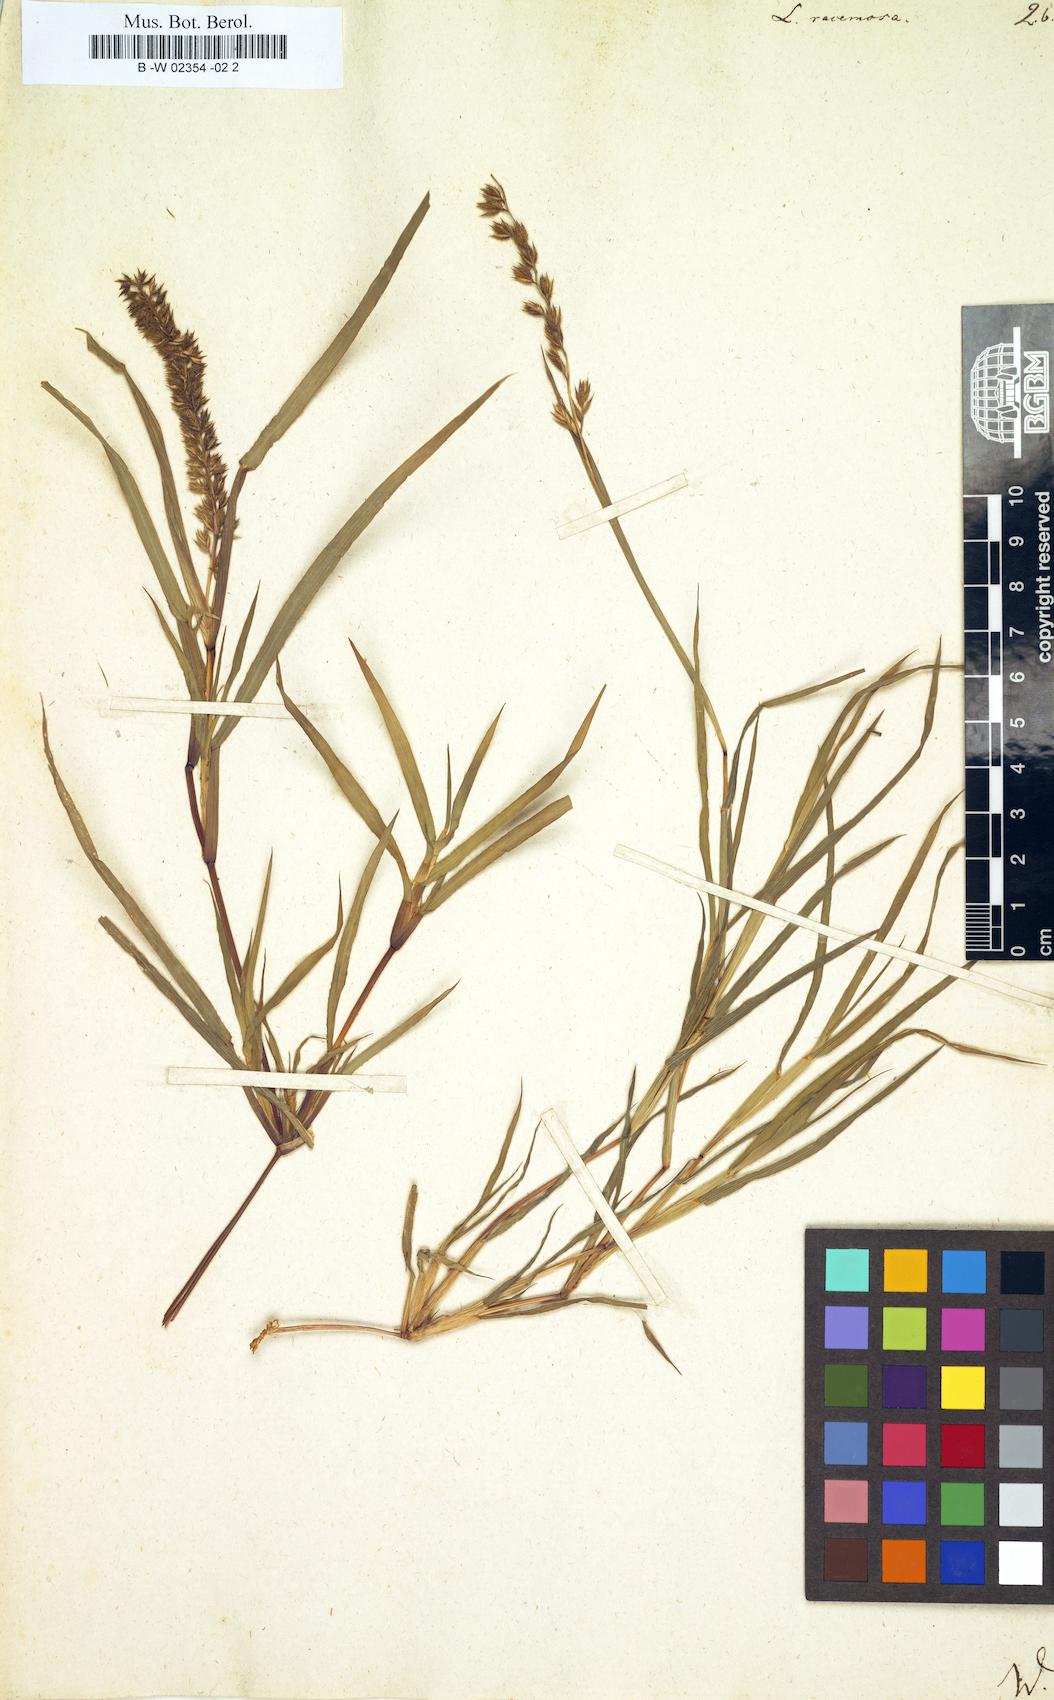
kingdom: Plantae
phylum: Tracheophyta
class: Liliopsida
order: Poales
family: Poaceae
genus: Tragus
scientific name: Tragus racemosus
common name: European bur-grass
